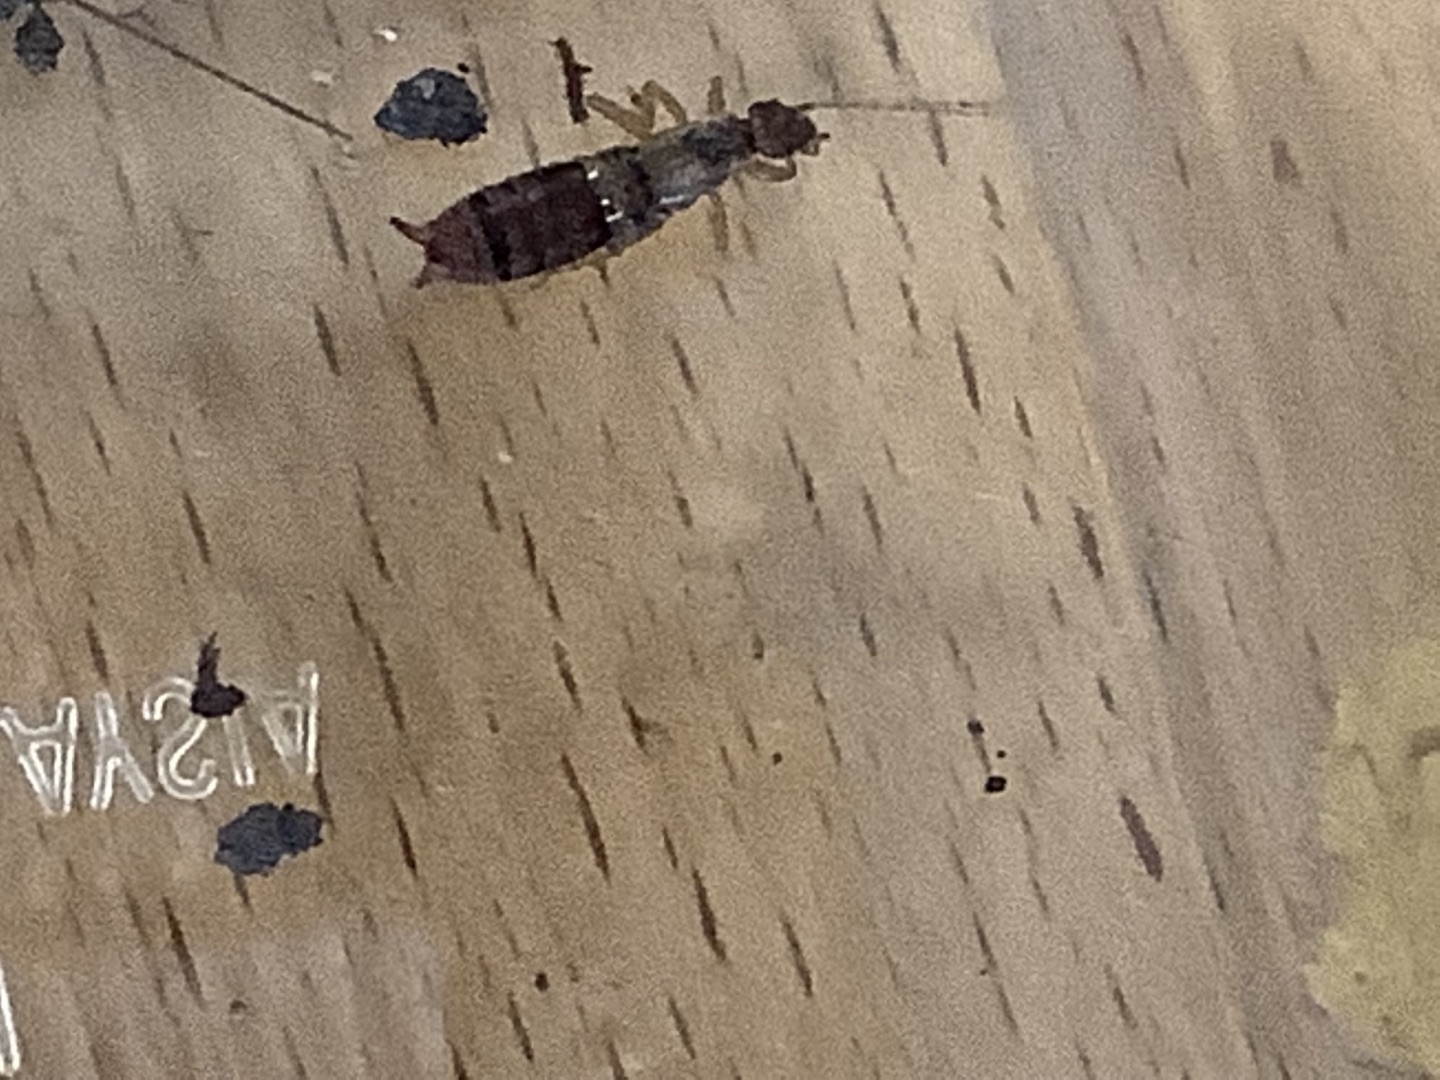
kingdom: Animalia
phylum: Arthropoda
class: Insecta
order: Dermaptera
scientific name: Dermaptera
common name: Ørentviste
